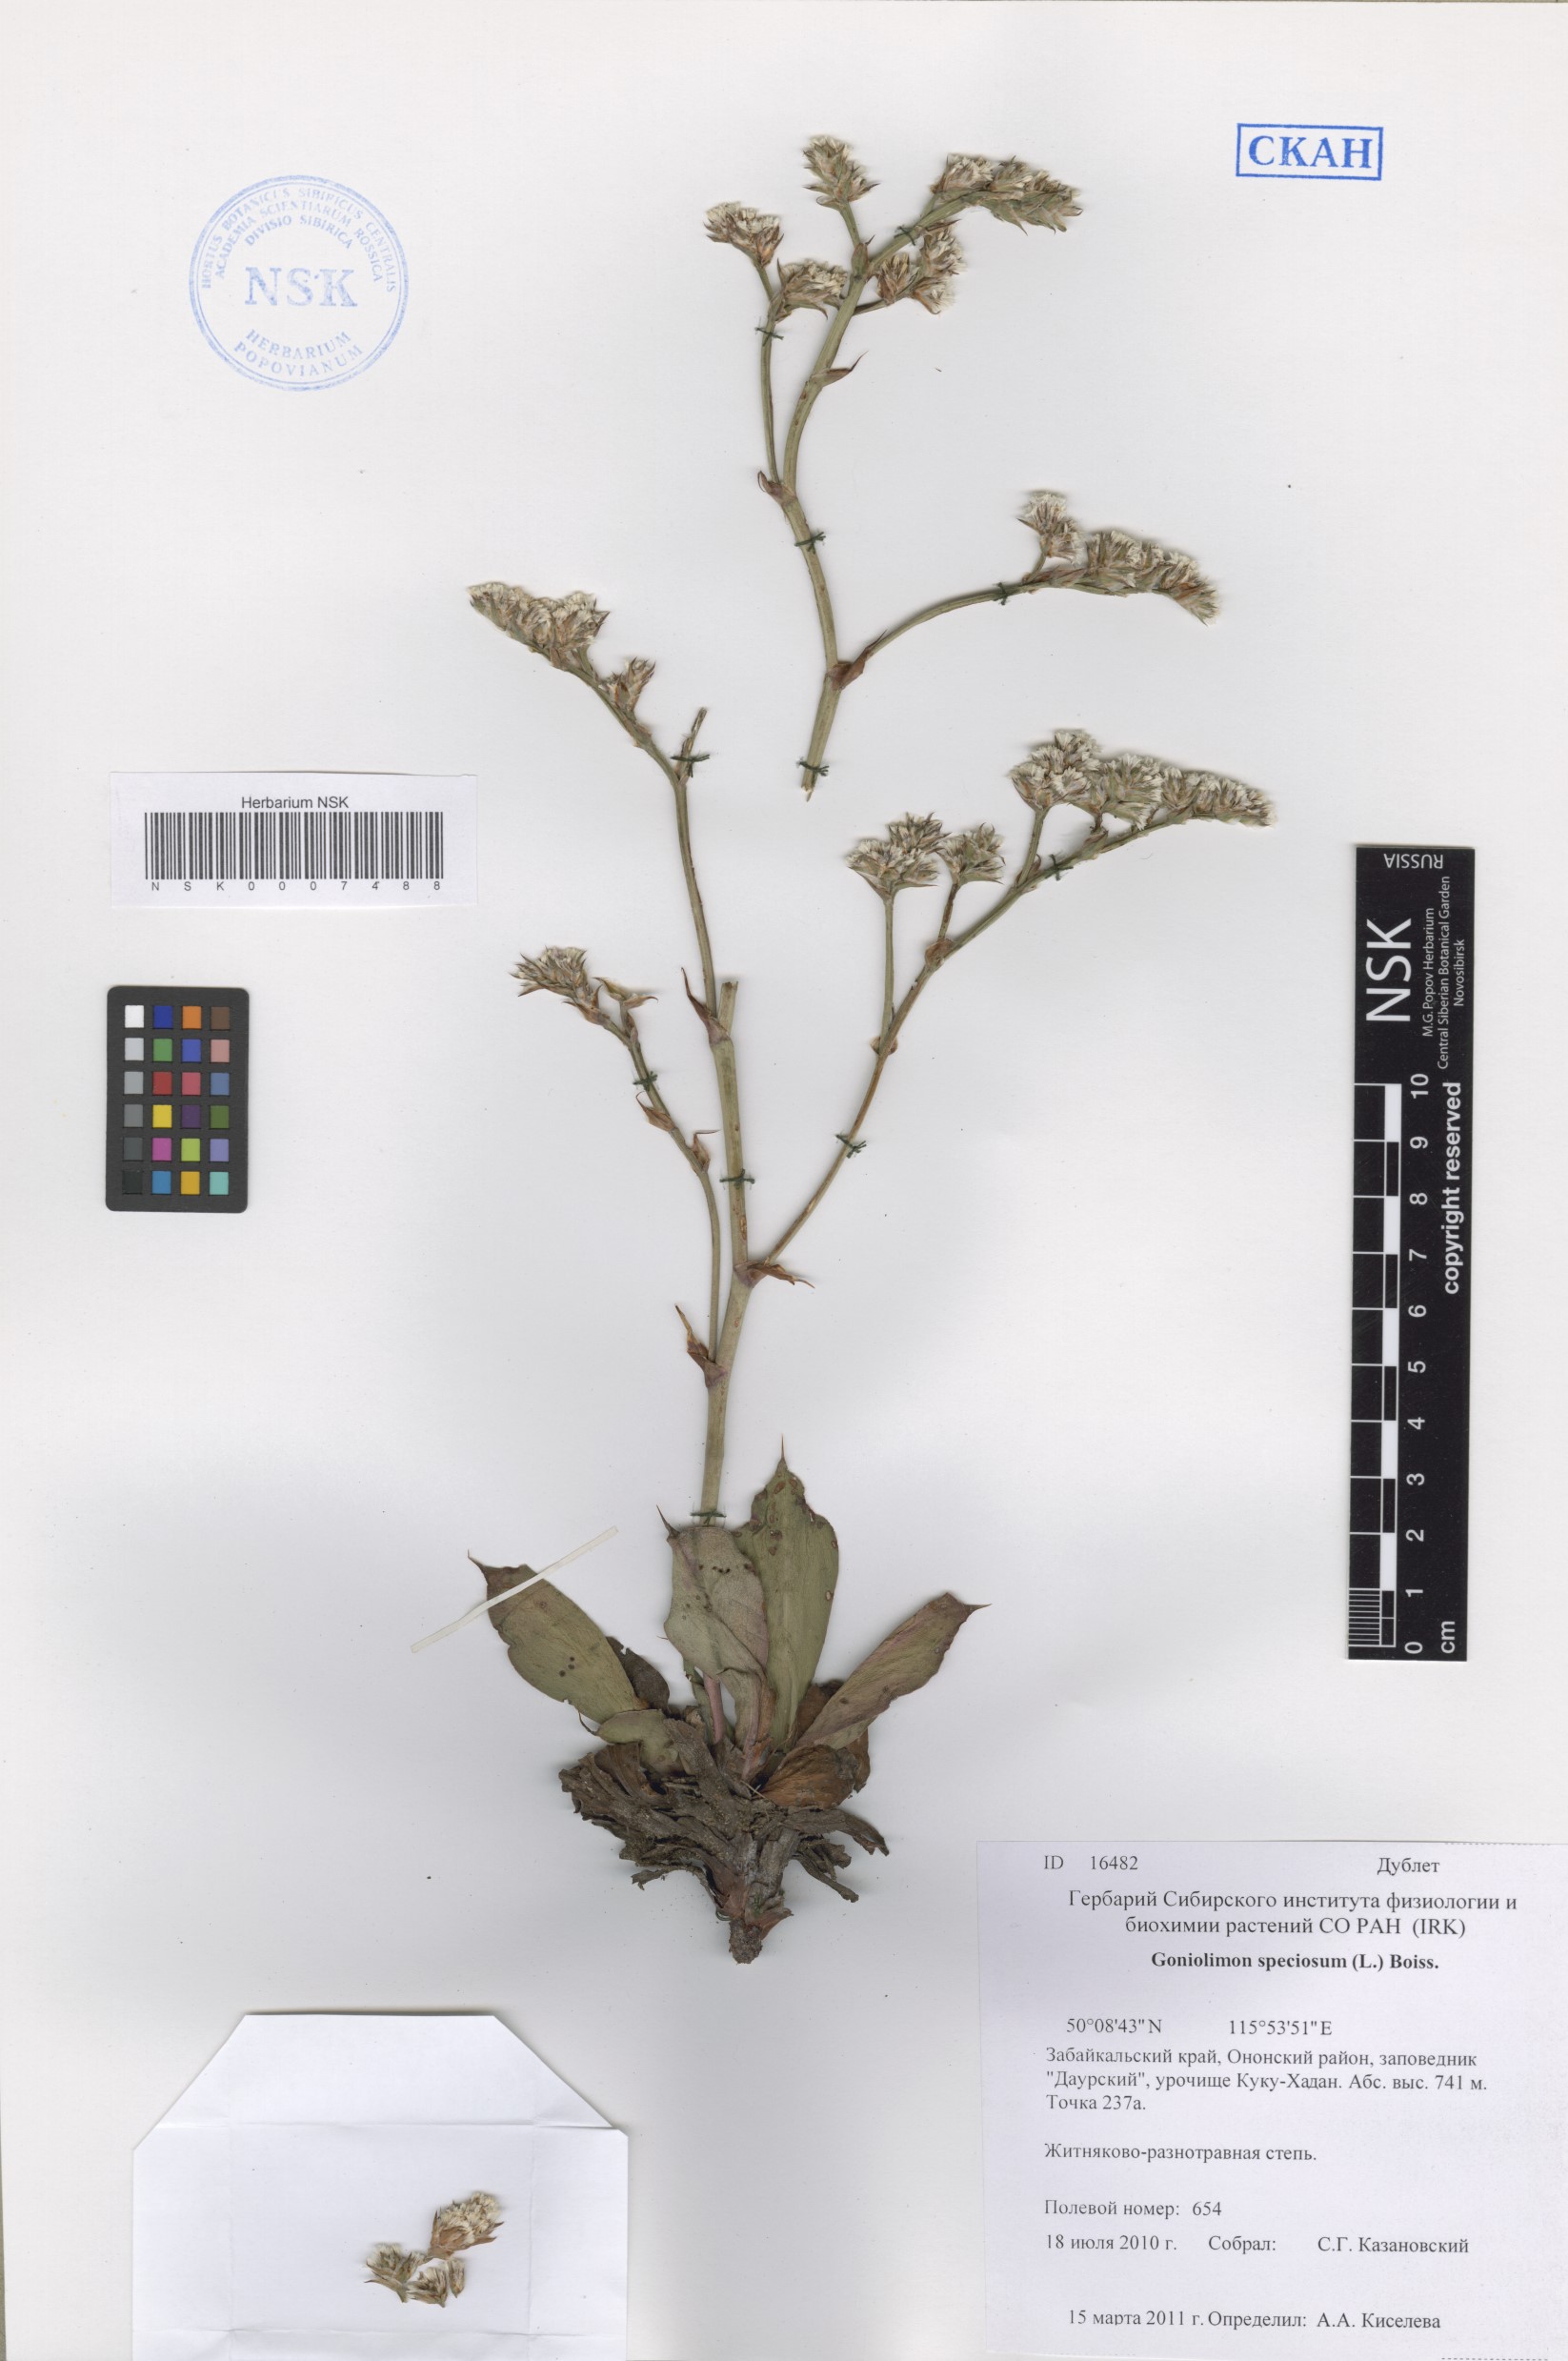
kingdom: Plantae
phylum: Tracheophyta
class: Magnoliopsida
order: Caryophyllales
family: Plumbaginaceae
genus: Goniolimon
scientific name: Goniolimon speciosum
